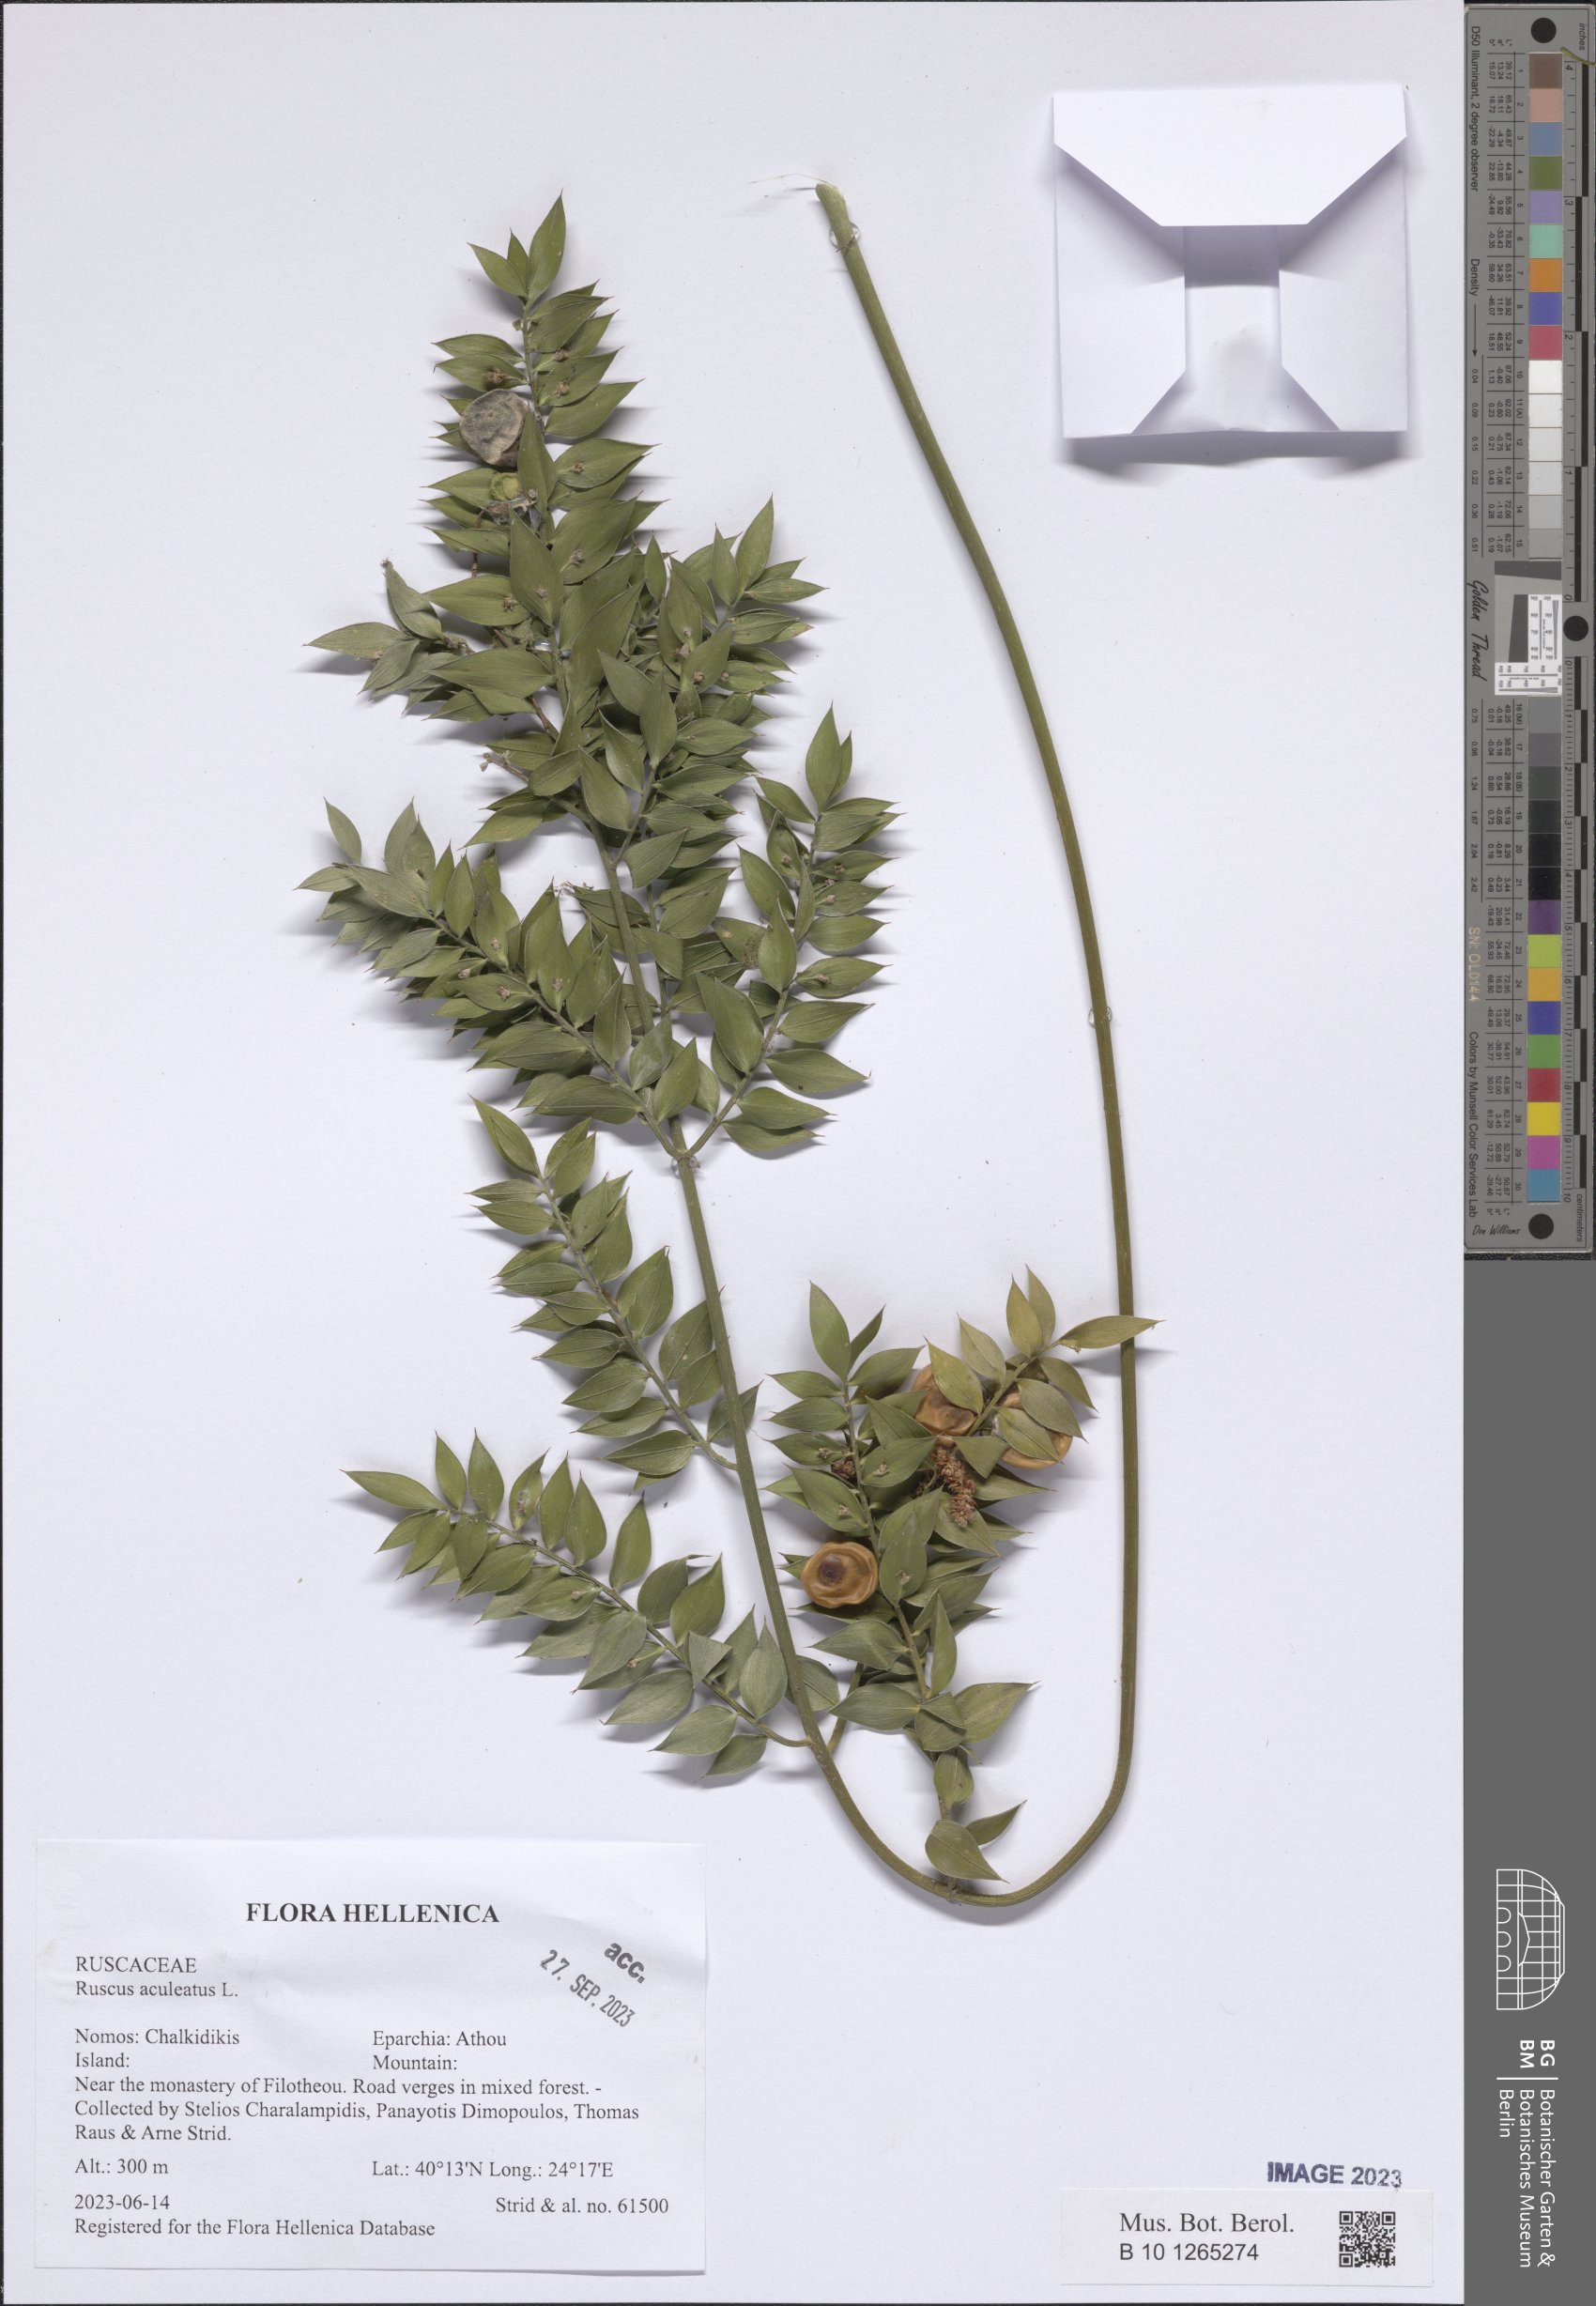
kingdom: Plantae
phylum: Tracheophyta
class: Liliopsida
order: Asparagales
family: Asparagaceae
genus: Ruscus
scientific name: Ruscus aculeatus
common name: Butcher's-broom
